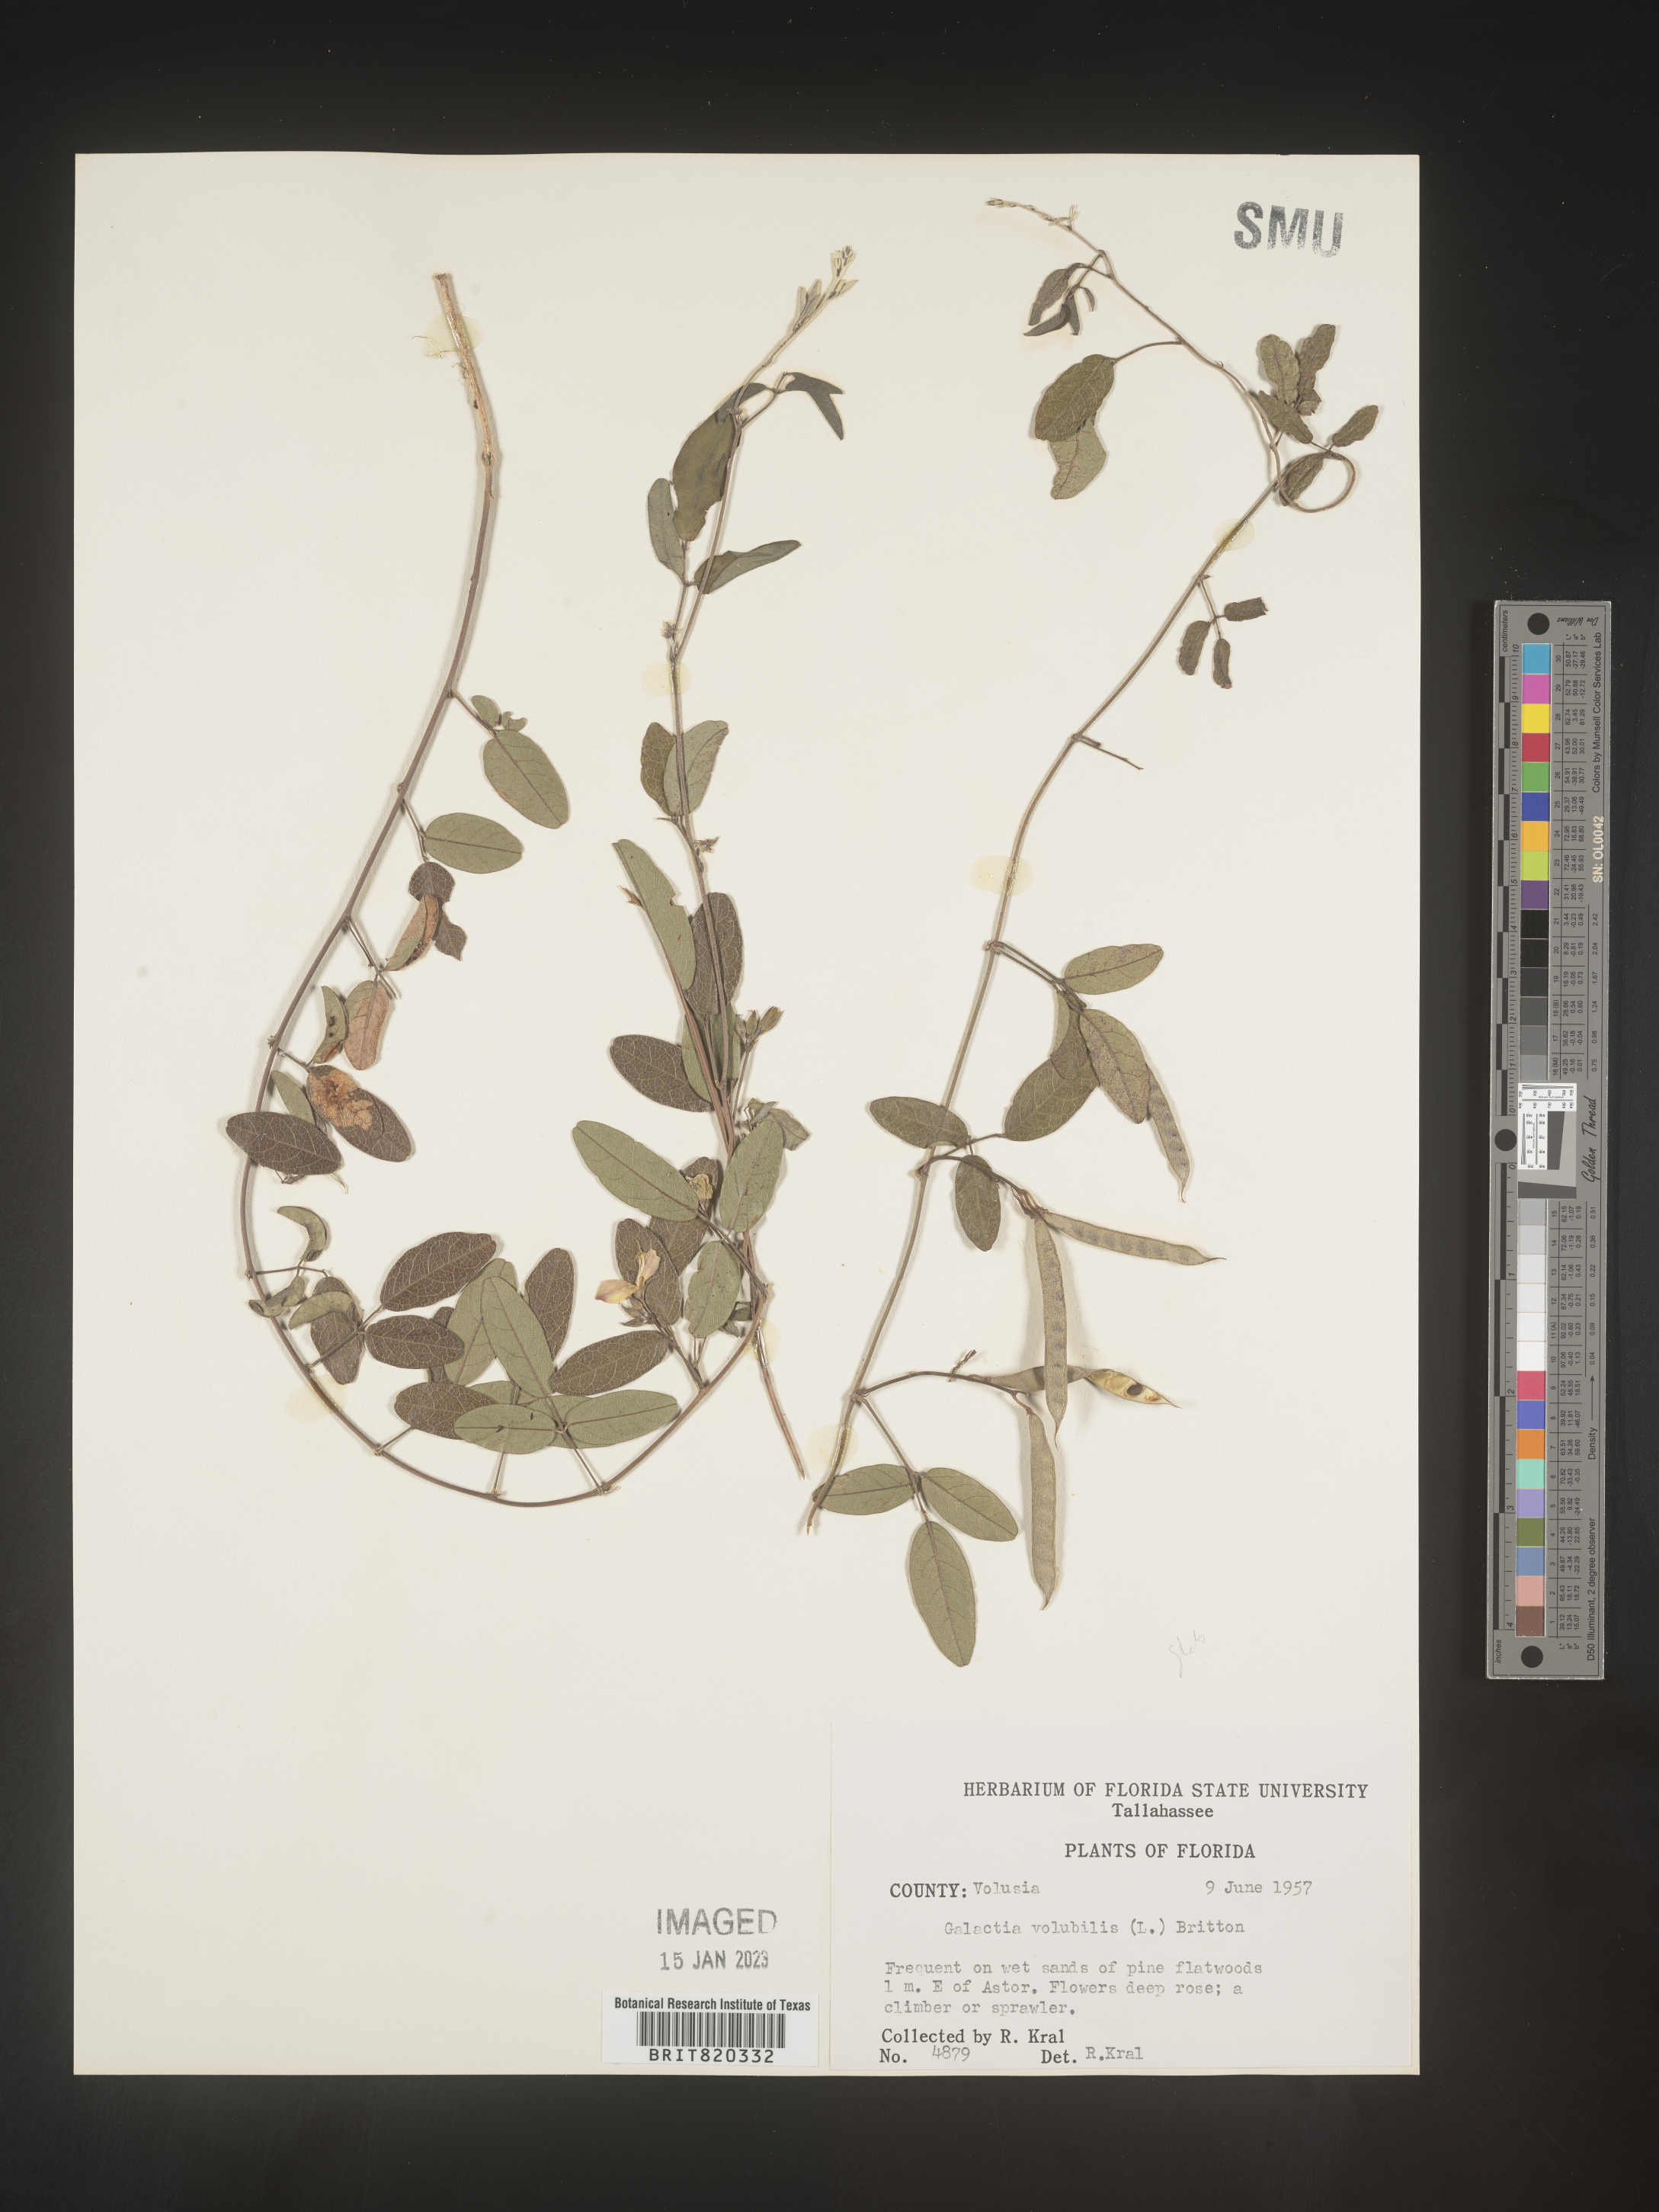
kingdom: Plantae
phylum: Tracheophyta
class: Magnoliopsida
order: Fabales
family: Fabaceae
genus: Galactia
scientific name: Galactia regularis
